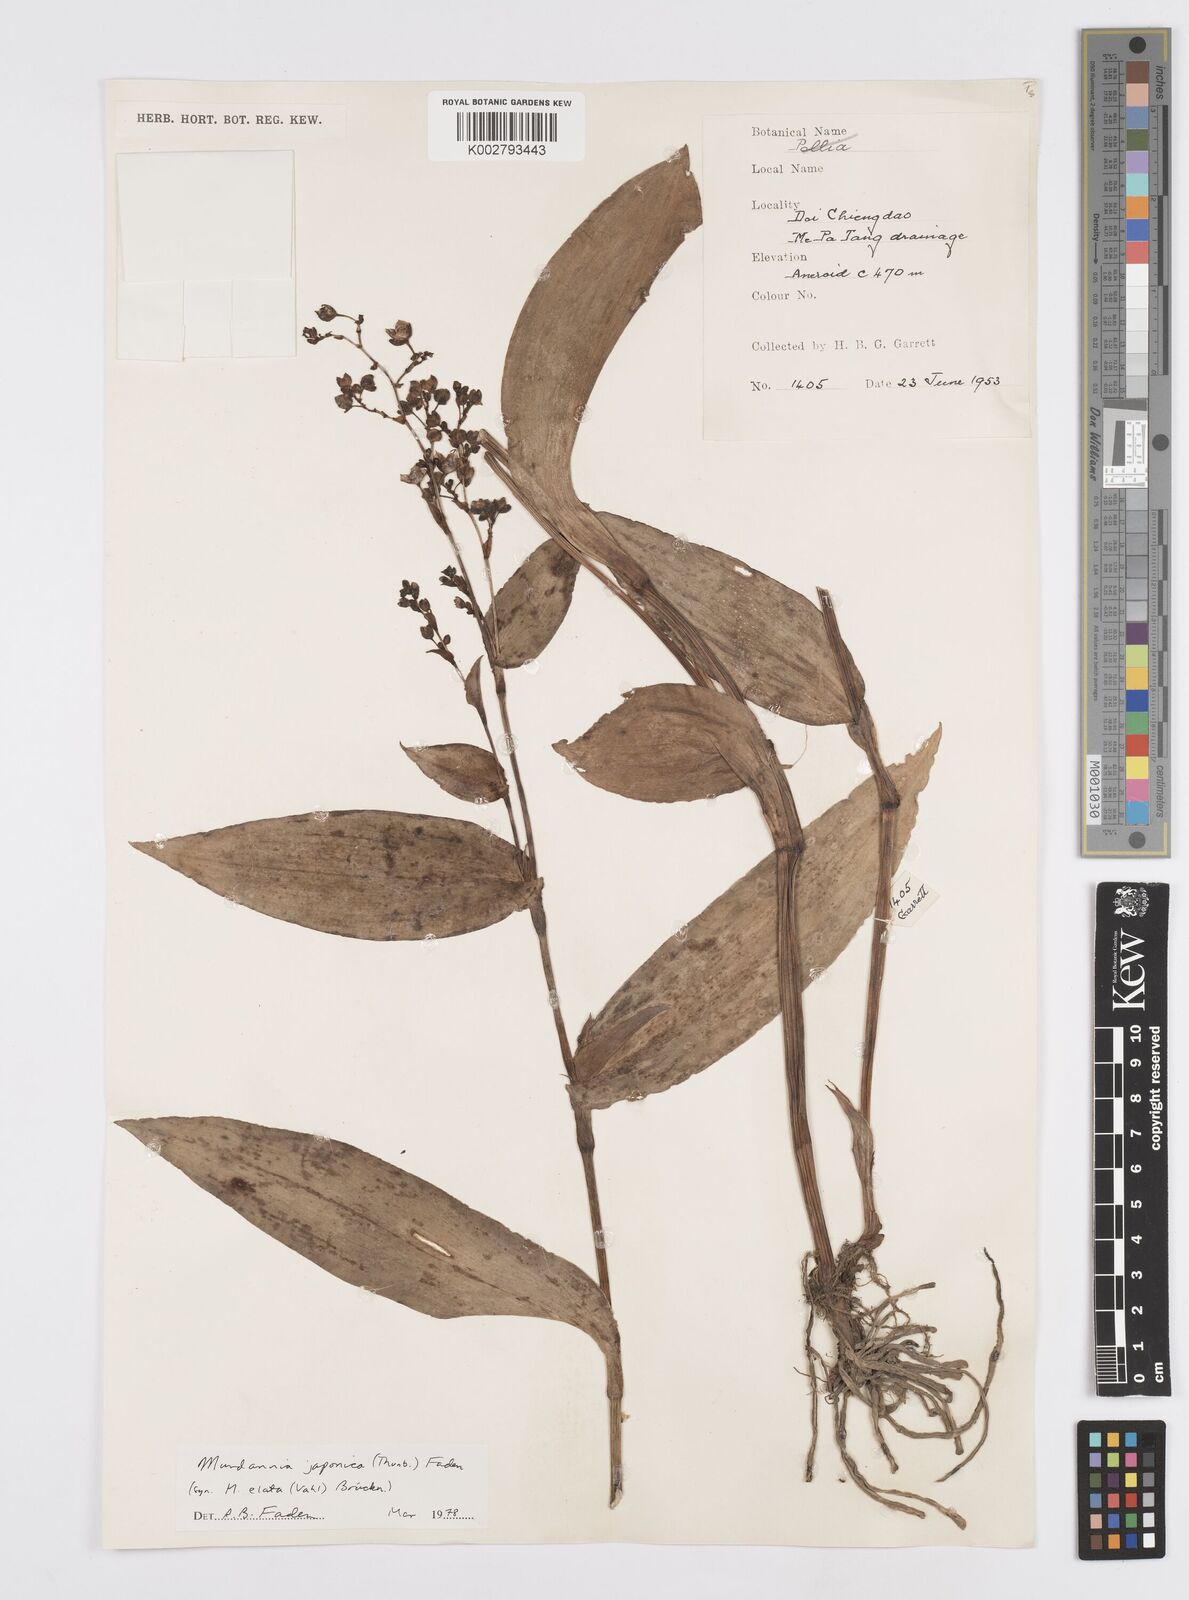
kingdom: Plantae
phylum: Tracheophyta
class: Liliopsida
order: Commelinales
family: Commelinaceae
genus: Murdannia
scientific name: Murdannia japonica
